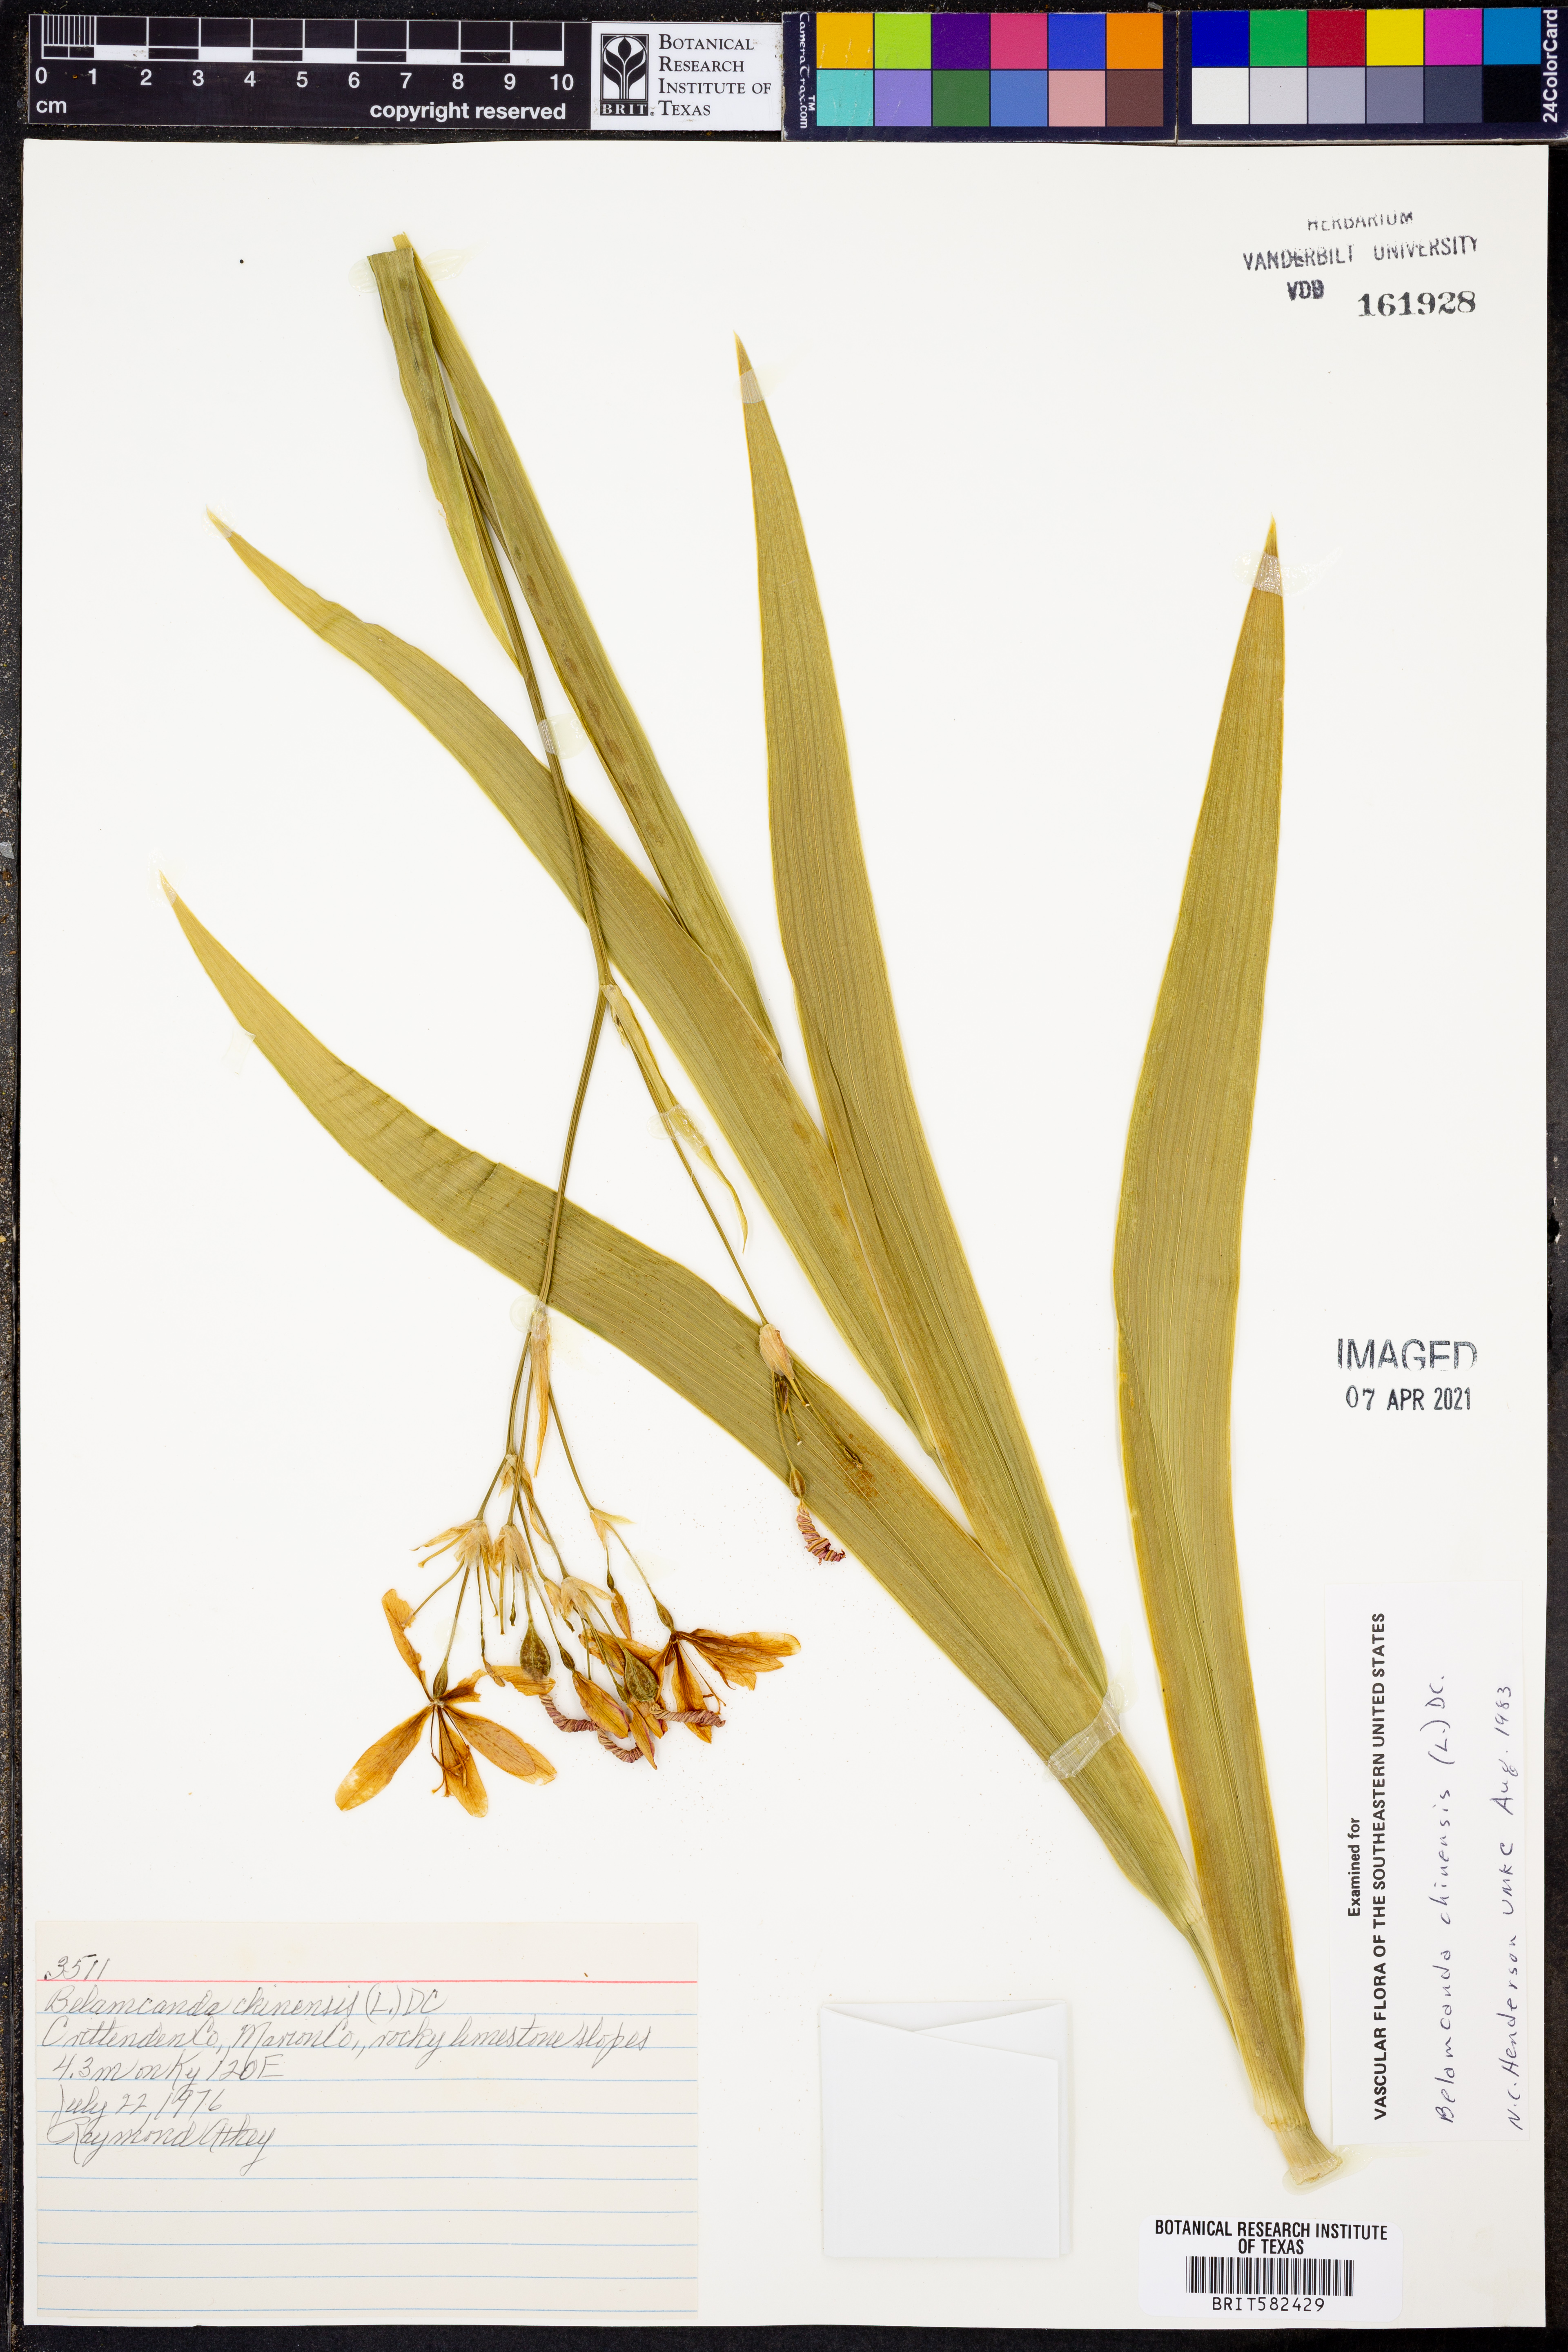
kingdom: Plantae
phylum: Tracheophyta
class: Liliopsida
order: Asparagales
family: Iridaceae
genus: Iris
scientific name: Iris domestica
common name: Belamcanda
